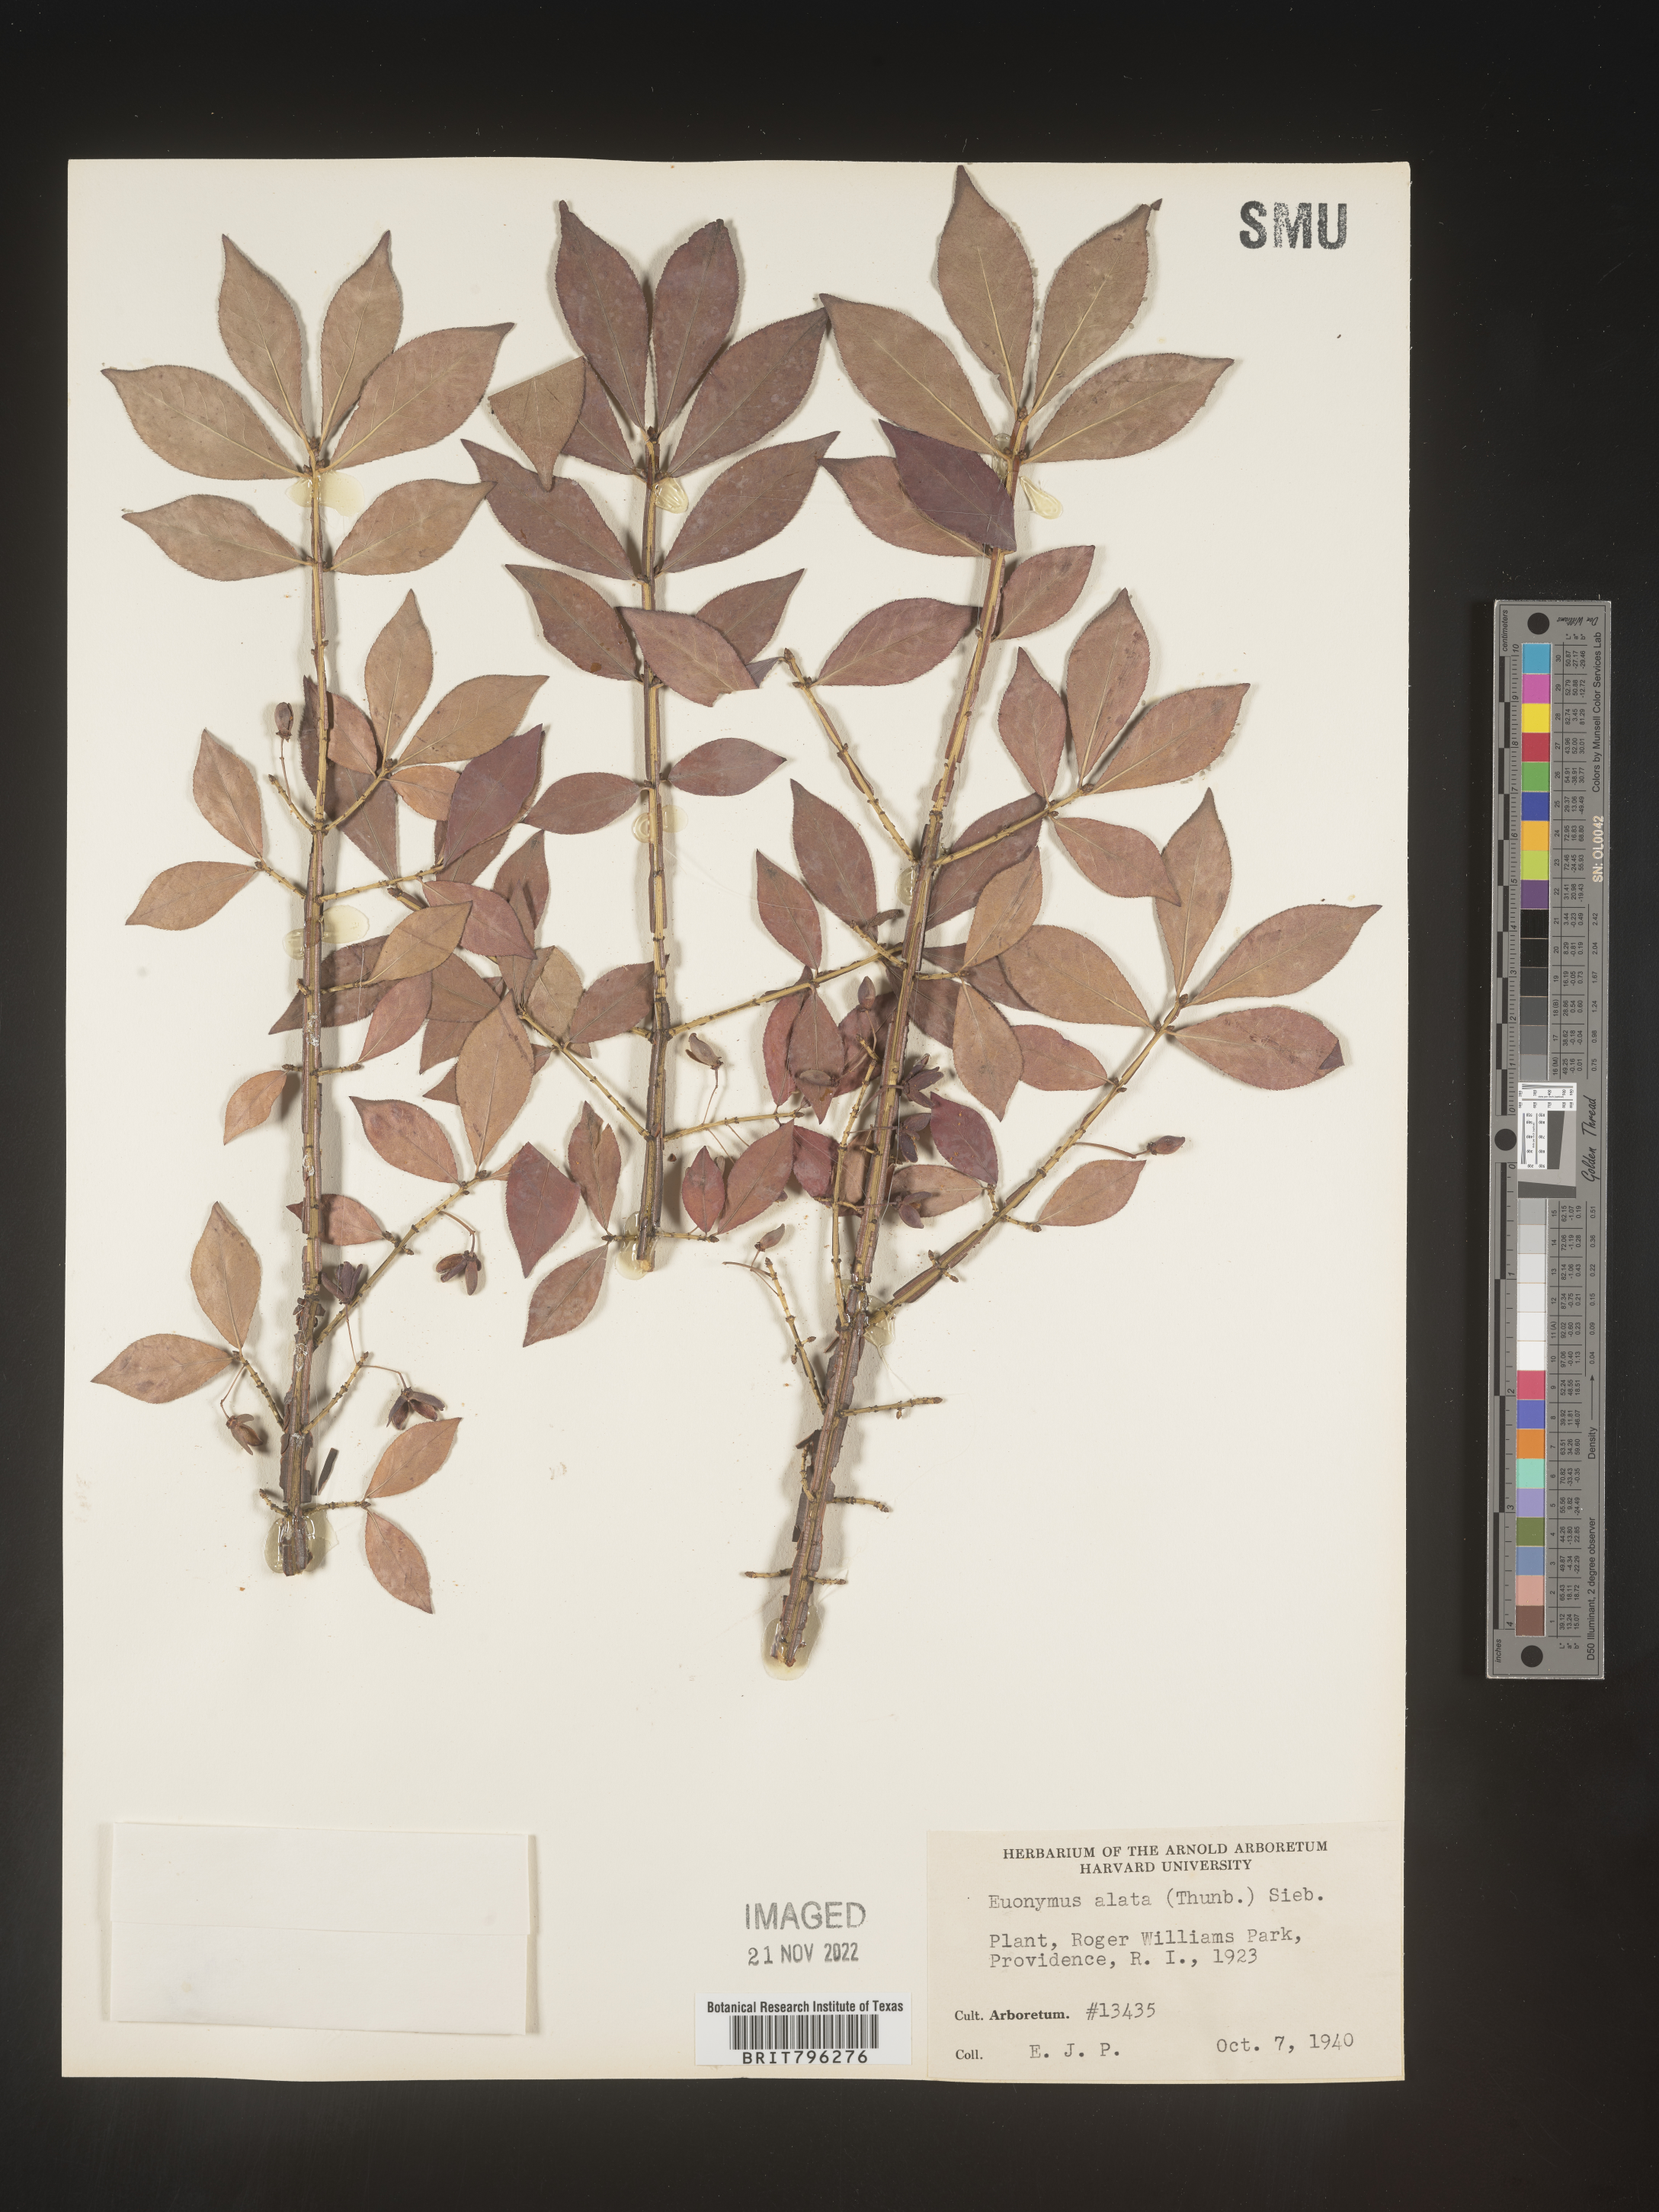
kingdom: Plantae
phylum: Tracheophyta
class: Magnoliopsida
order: Celastrales
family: Celastraceae
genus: Euonymus
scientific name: Euonymus
